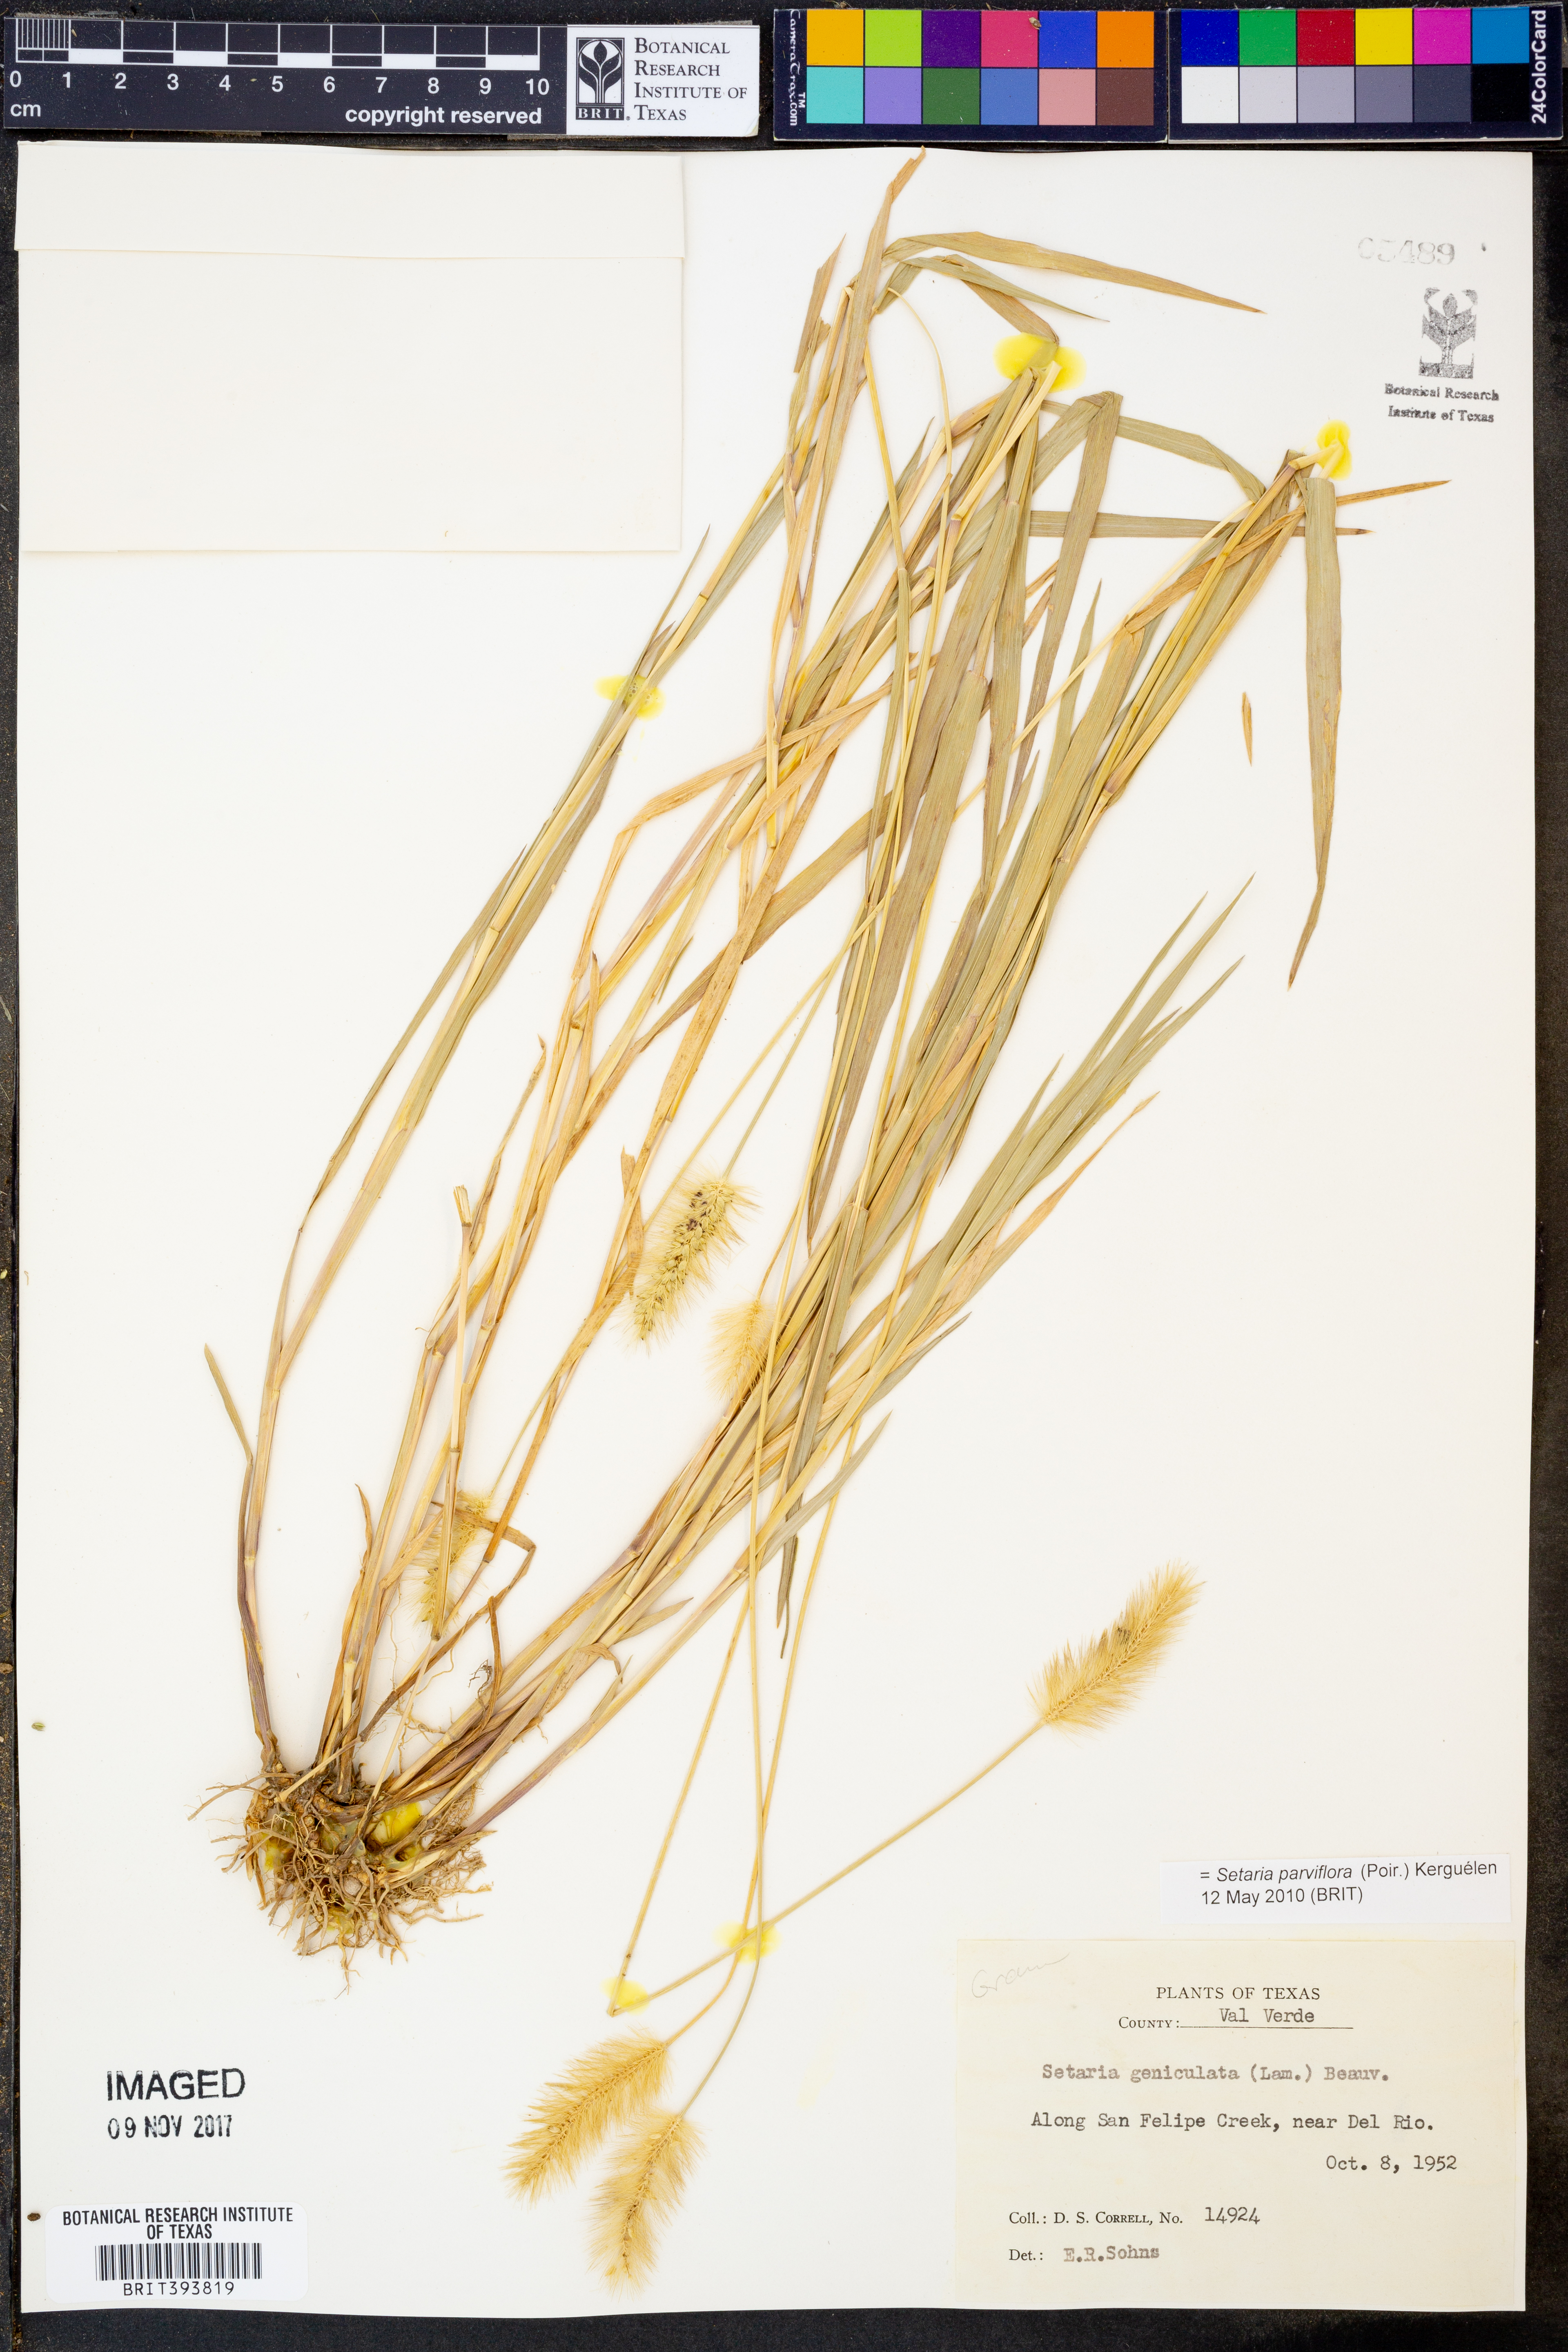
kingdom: Plantae
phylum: Tracheophyta
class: Liliopsida
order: Poales
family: Poaceae
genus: Setaria
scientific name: Setaria parviflora
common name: Knotroot bristle-grass
